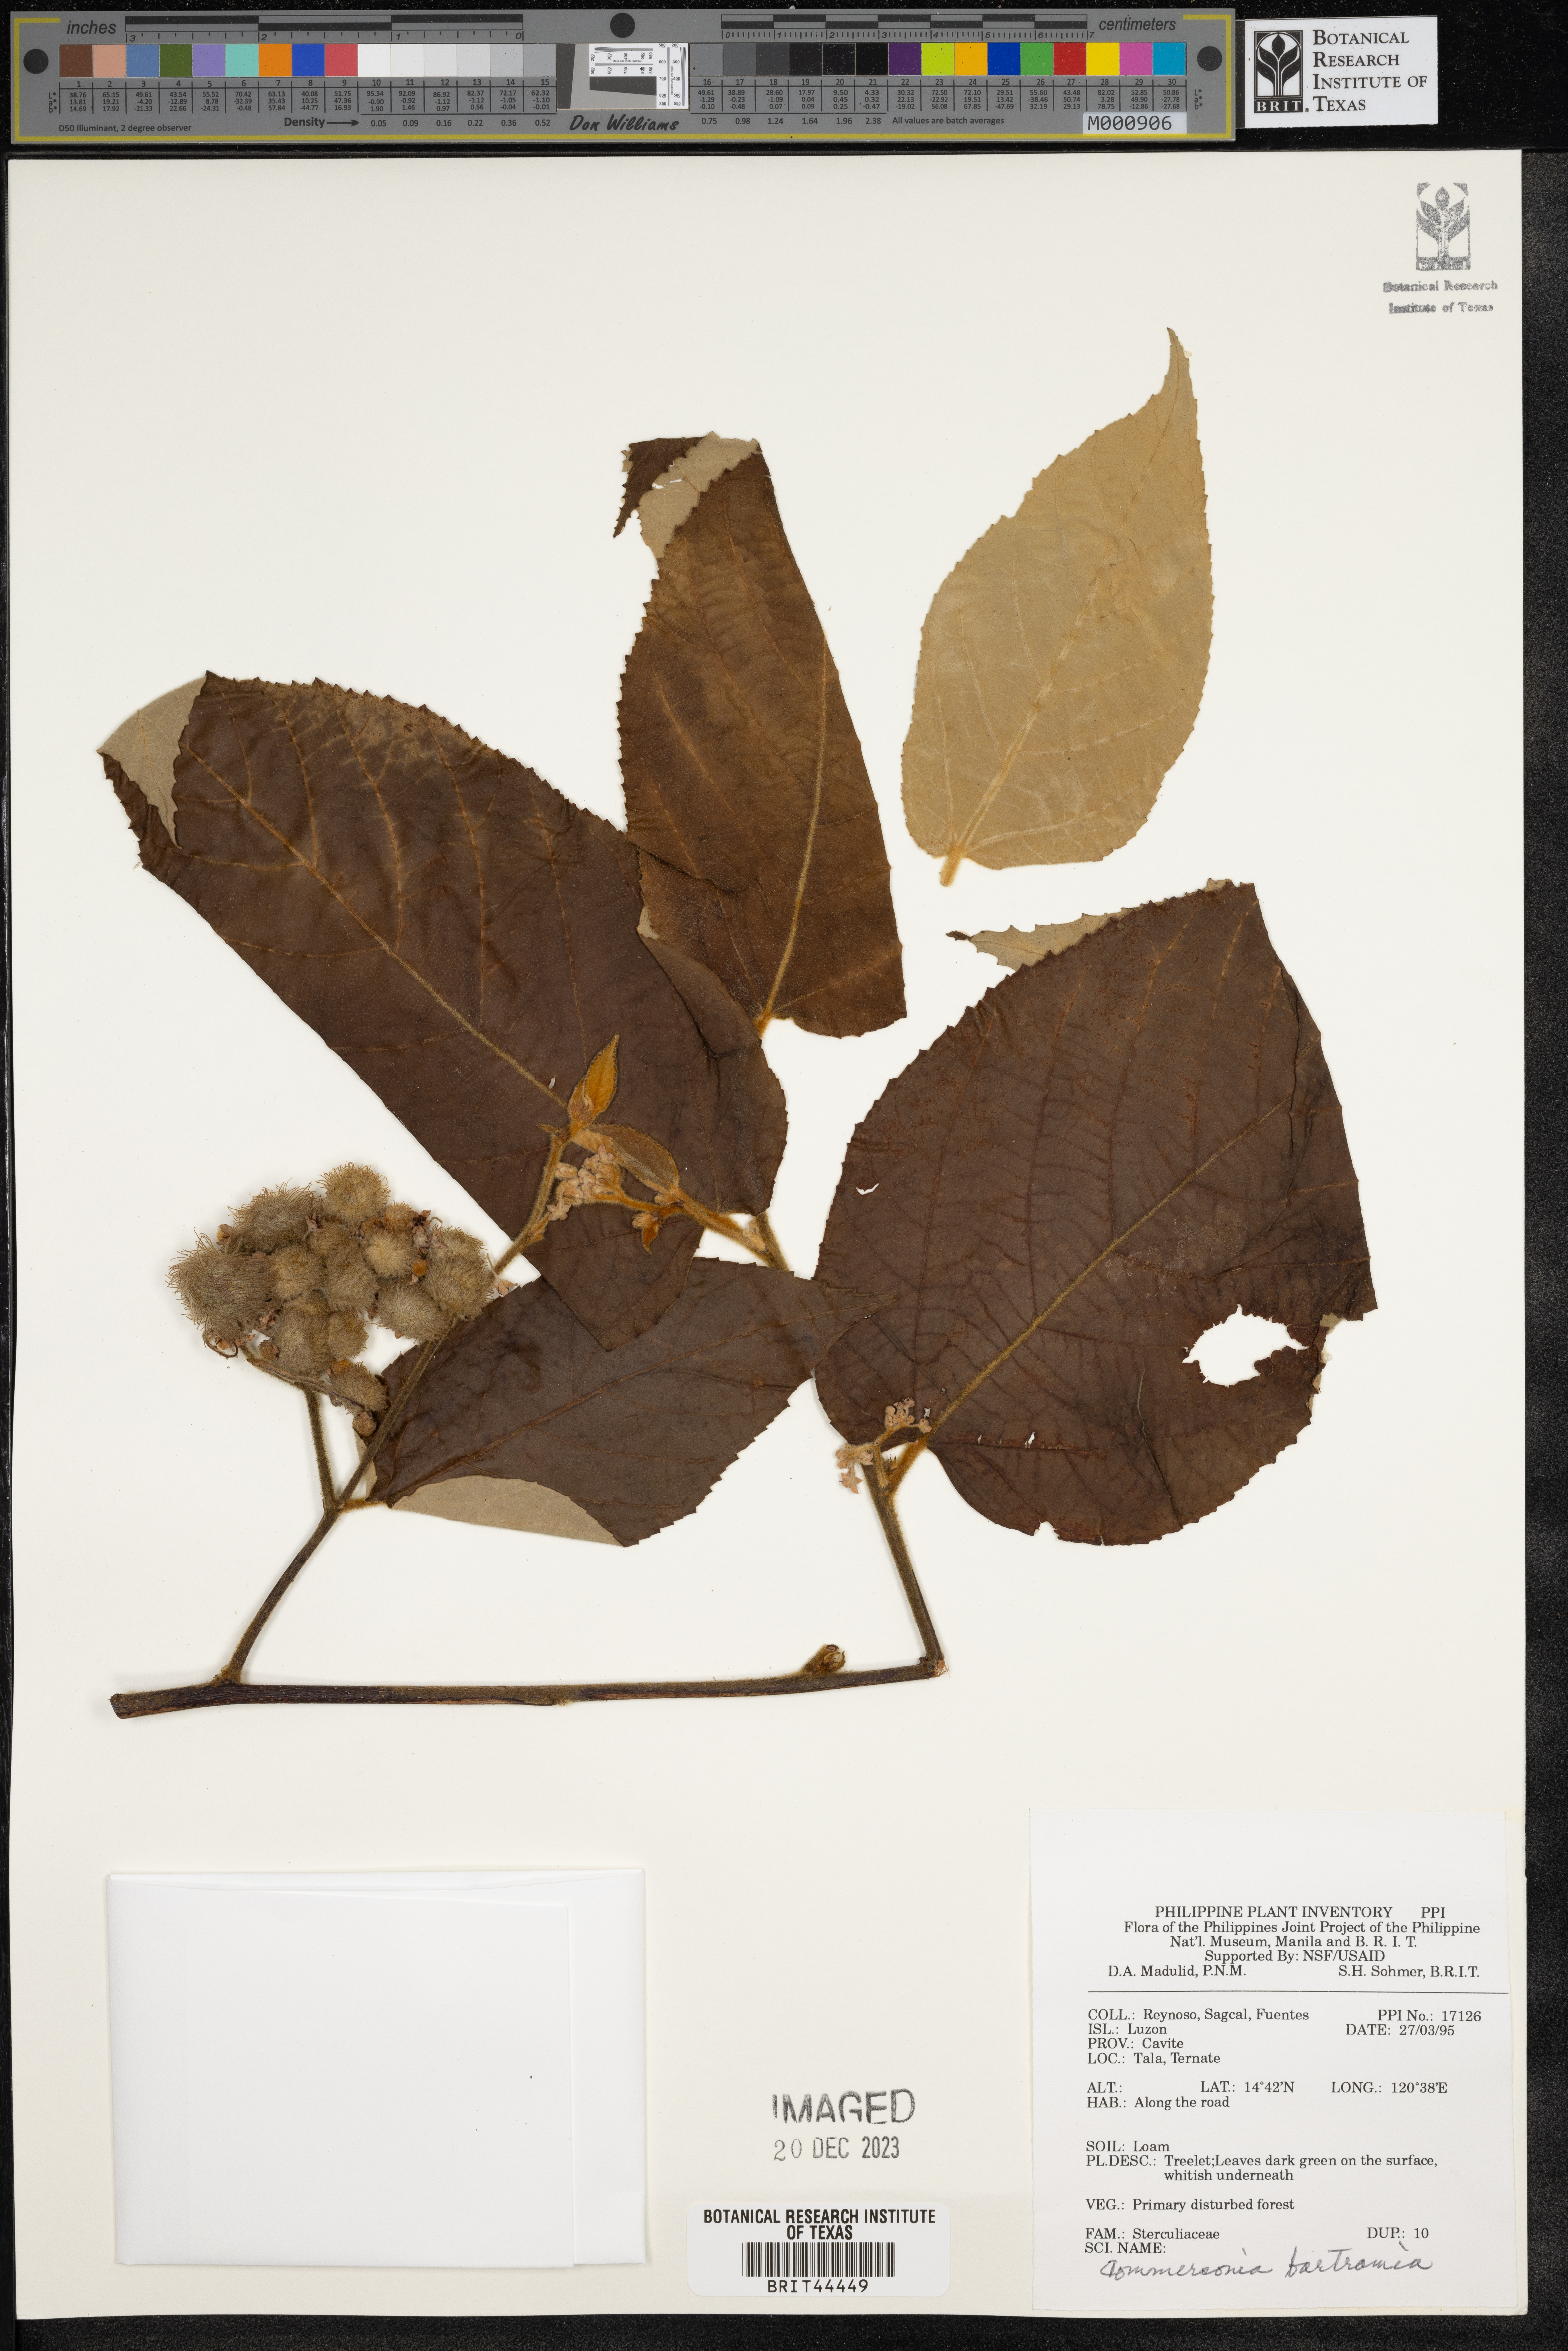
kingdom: Plantae
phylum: Tracheophyta
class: Magnoliopsida
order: Malvales
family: Malvaceae
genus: Commersonia
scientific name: Commersonia bartramia
